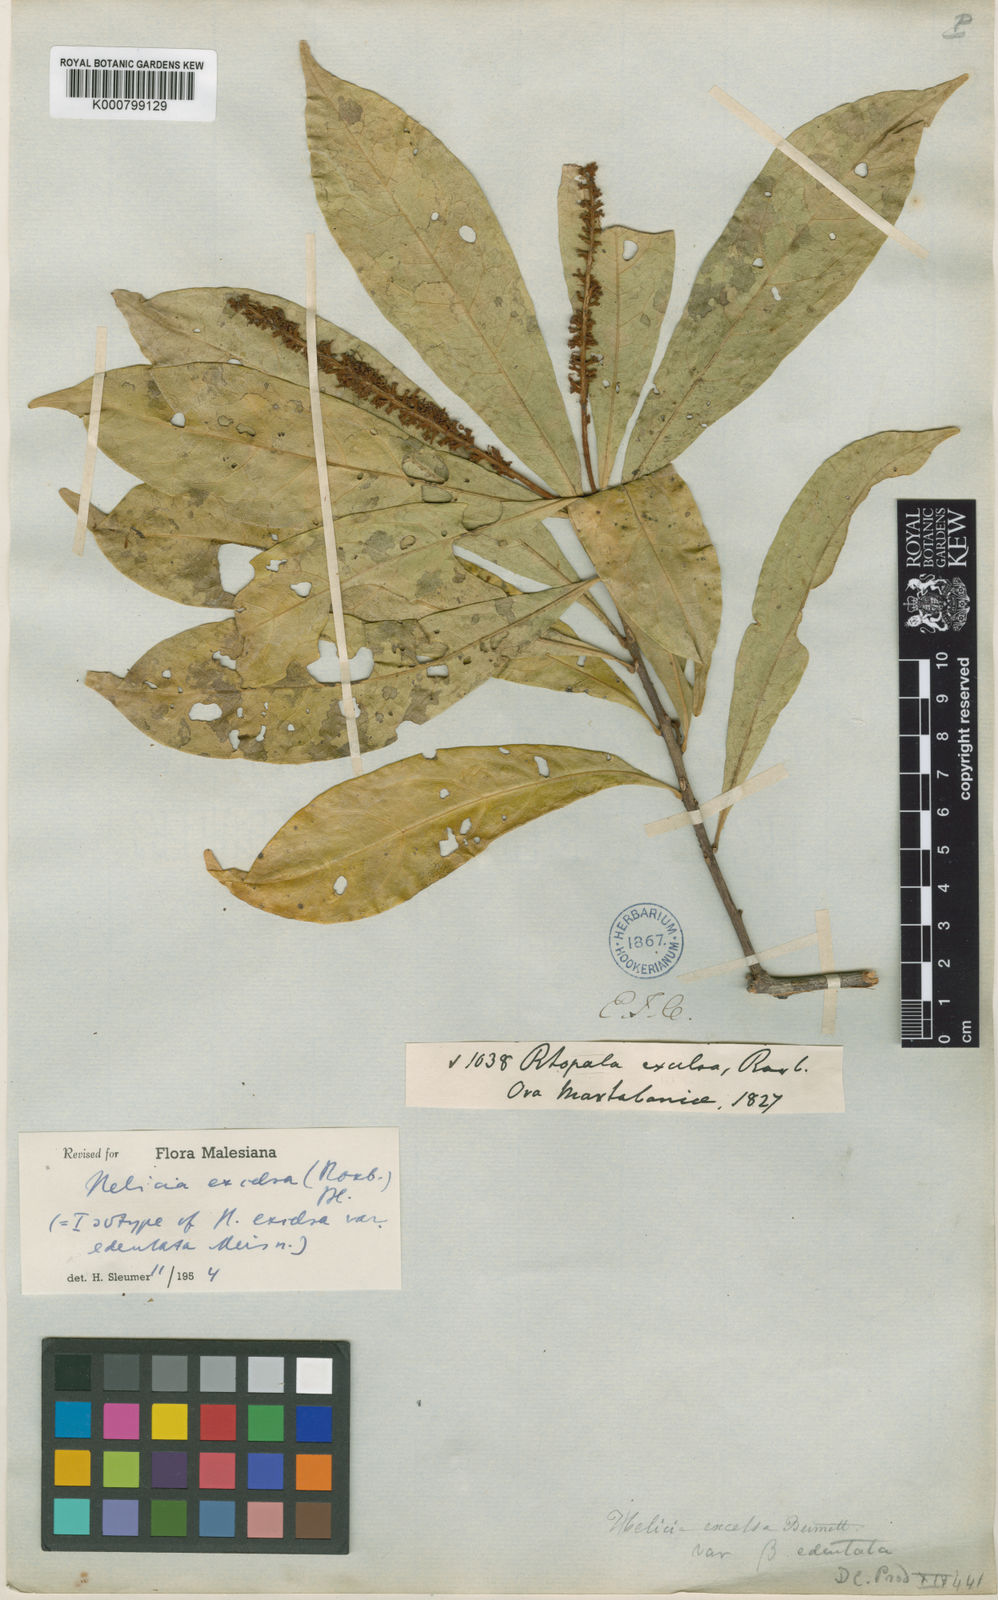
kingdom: Plantae
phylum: Tracheophyta
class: Magnoliopsida
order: Proteales
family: Proteaceae
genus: Helicia
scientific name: Helicia excelsa
